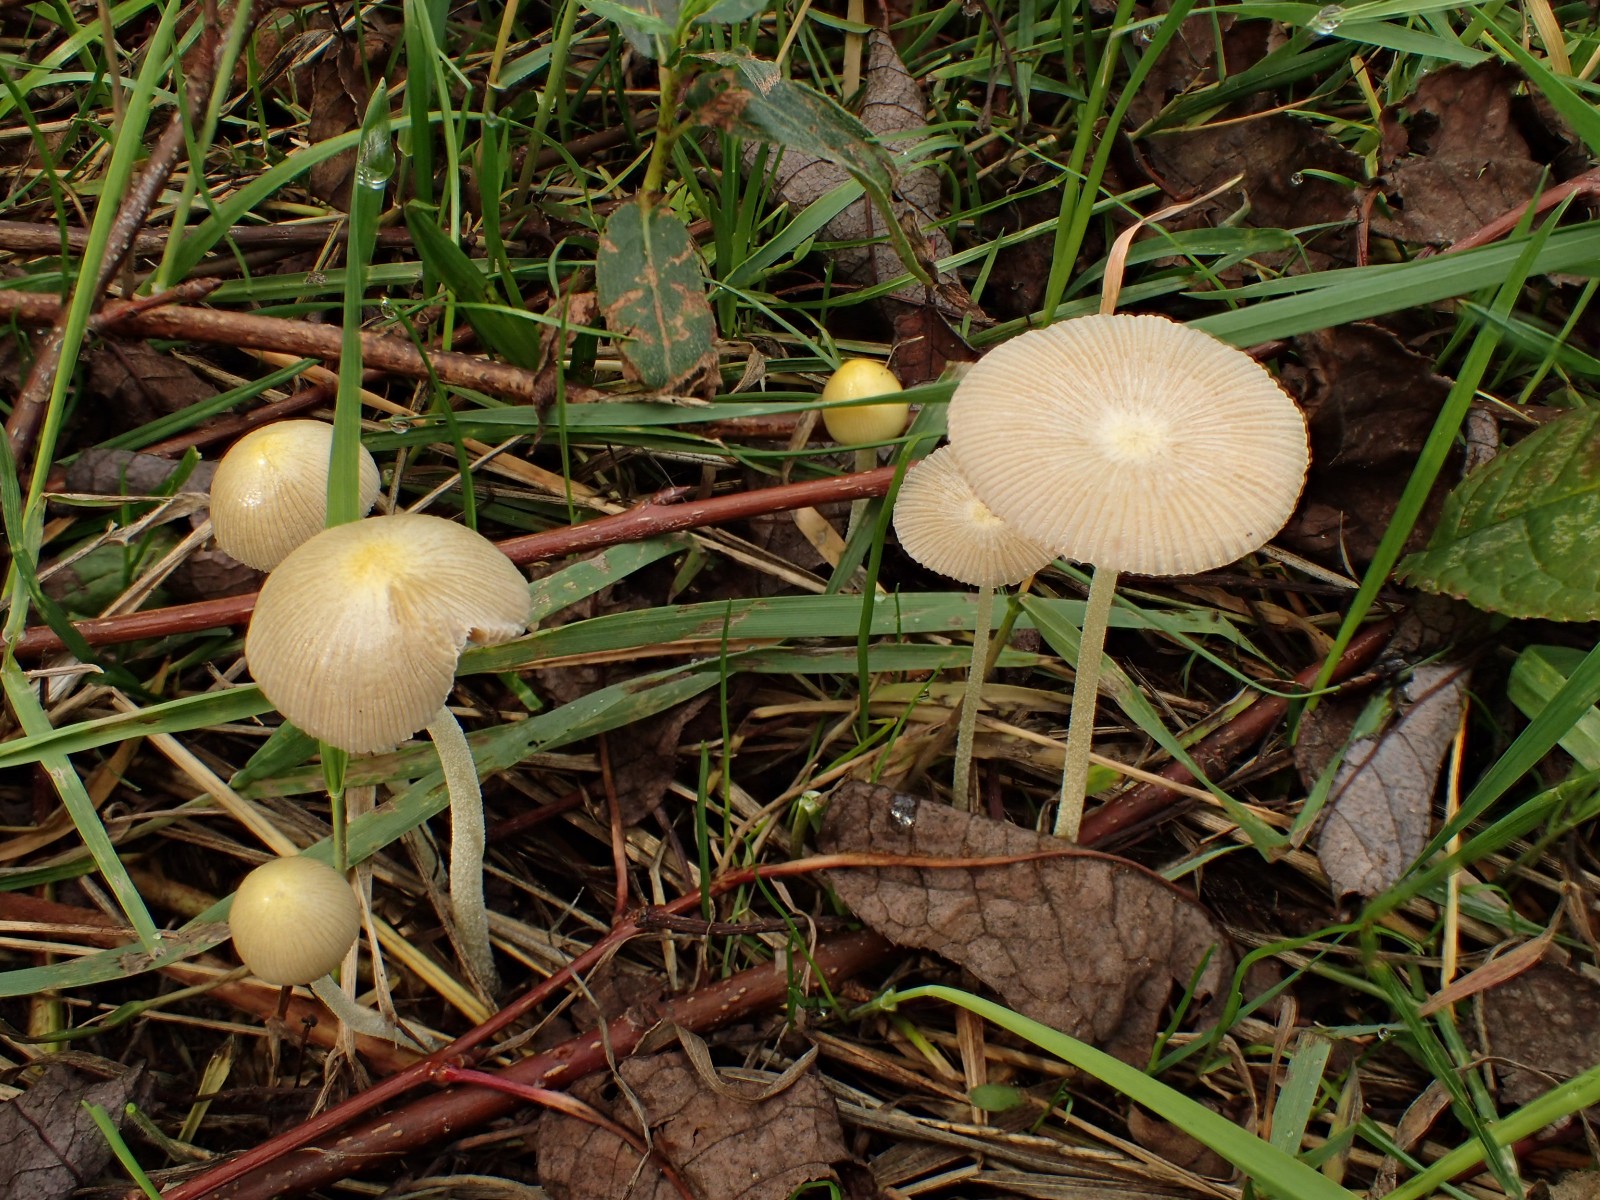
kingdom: Fungi
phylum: Basidiomycota
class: Agaricomycetes
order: Agaricales
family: Bolbitiaceae
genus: Bolbitius
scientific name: Bolbitius titubans
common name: almindelig gulhat
